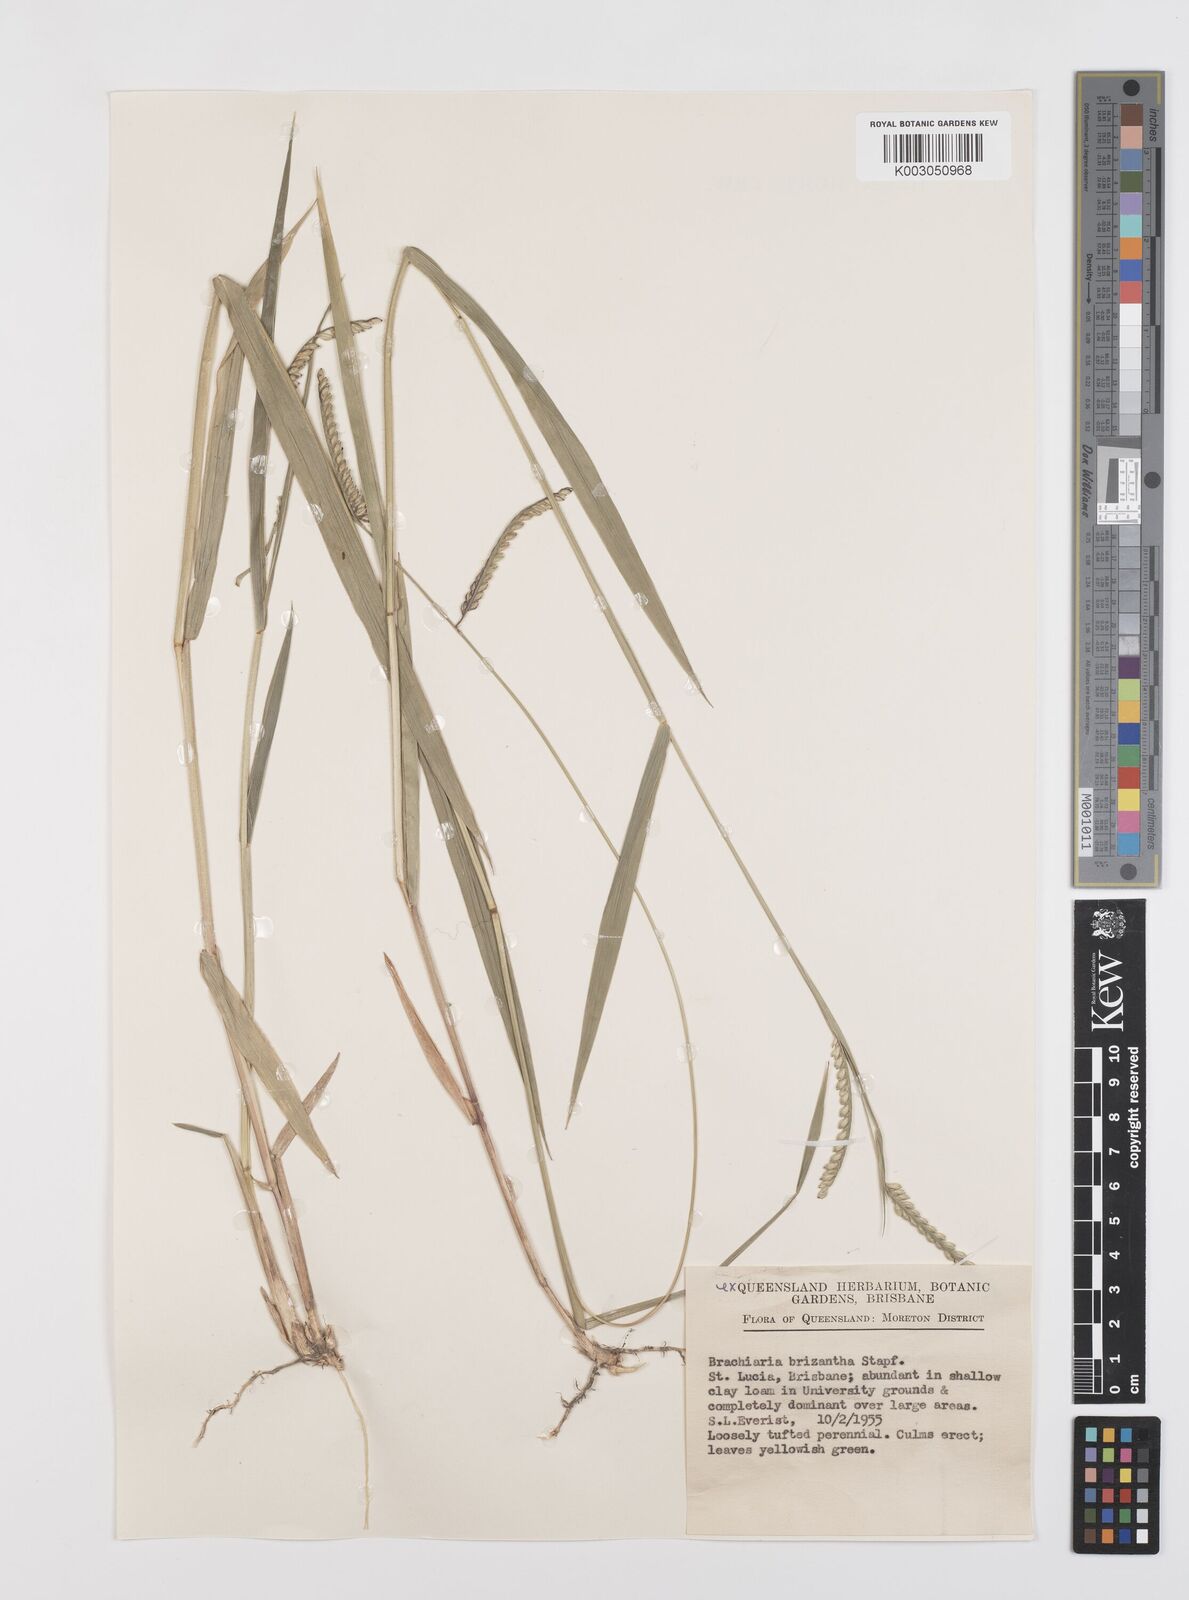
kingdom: Plantae
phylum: Tracheophyta
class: Liliopsida
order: Poales
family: Poaceae
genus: Urochloa
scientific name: Urochloa eminii
